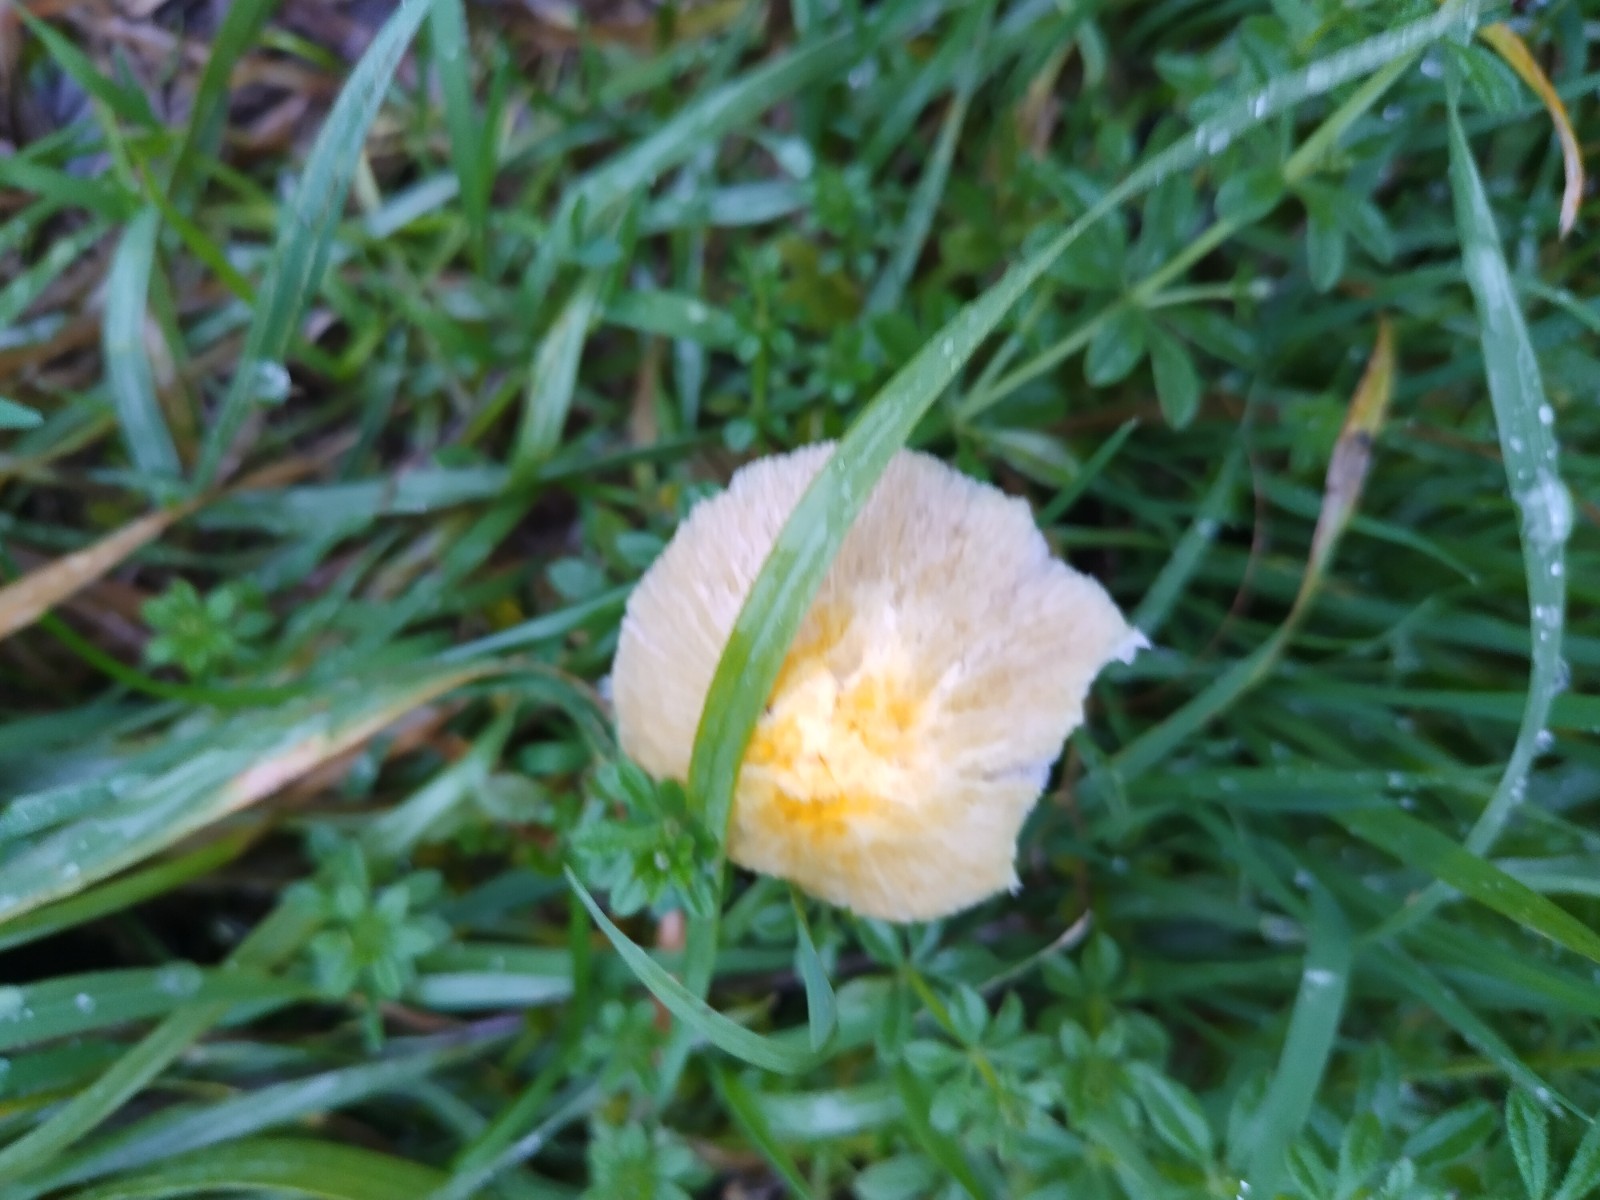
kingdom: Fungi
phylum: Basidiomycota
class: Agaricomycetes
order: Agaricales
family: Bolbitiaceae
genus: Bolbitius
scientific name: Bolbitius titubans
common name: almindelig gulhat
